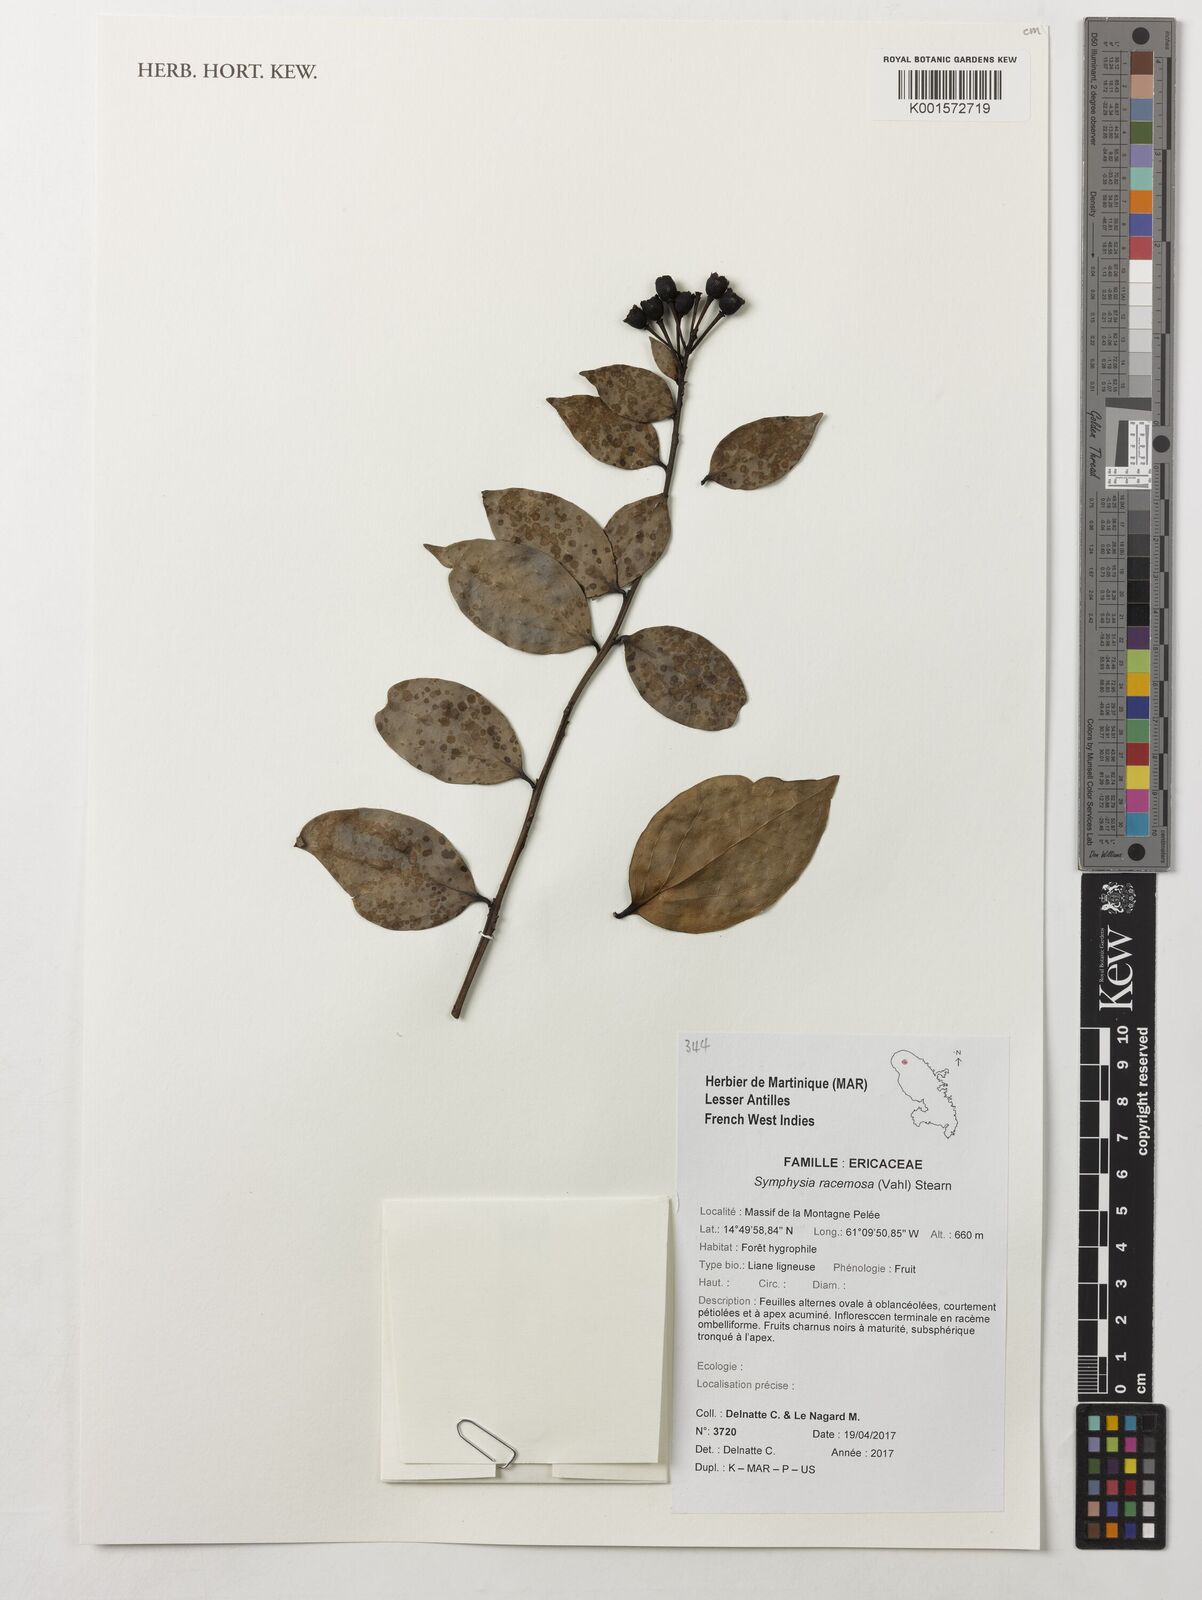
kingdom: Plantae
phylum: Tracheophyta
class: Magnoliopsida
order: Ericales
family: Ericaceae
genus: Symphysia
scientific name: Symphysia racemosa
